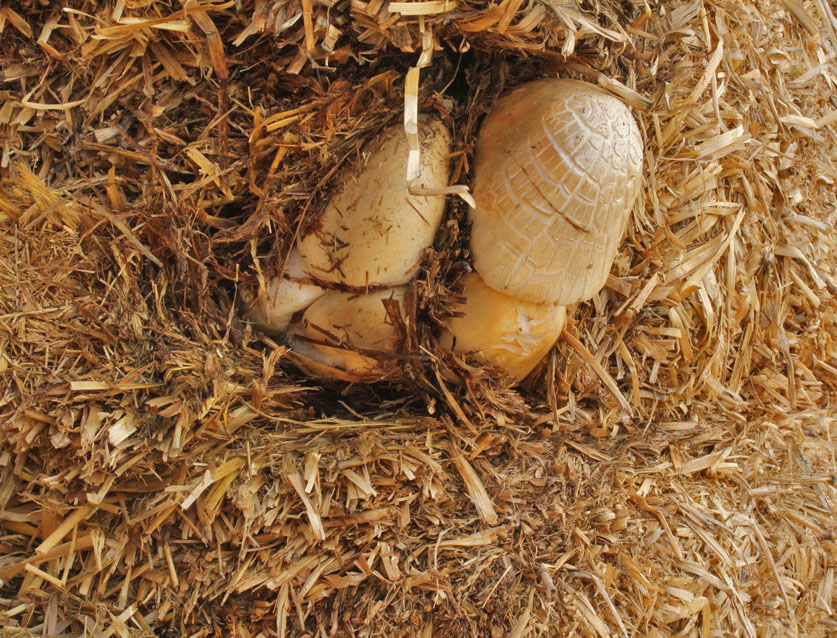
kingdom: Fungi
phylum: Basidiomycota
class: Agaricomycetes
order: Agaricales
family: Pluteaceae
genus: Volvopluteus
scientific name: Volvopluteus gloiocephalus
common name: høj posesvamp
